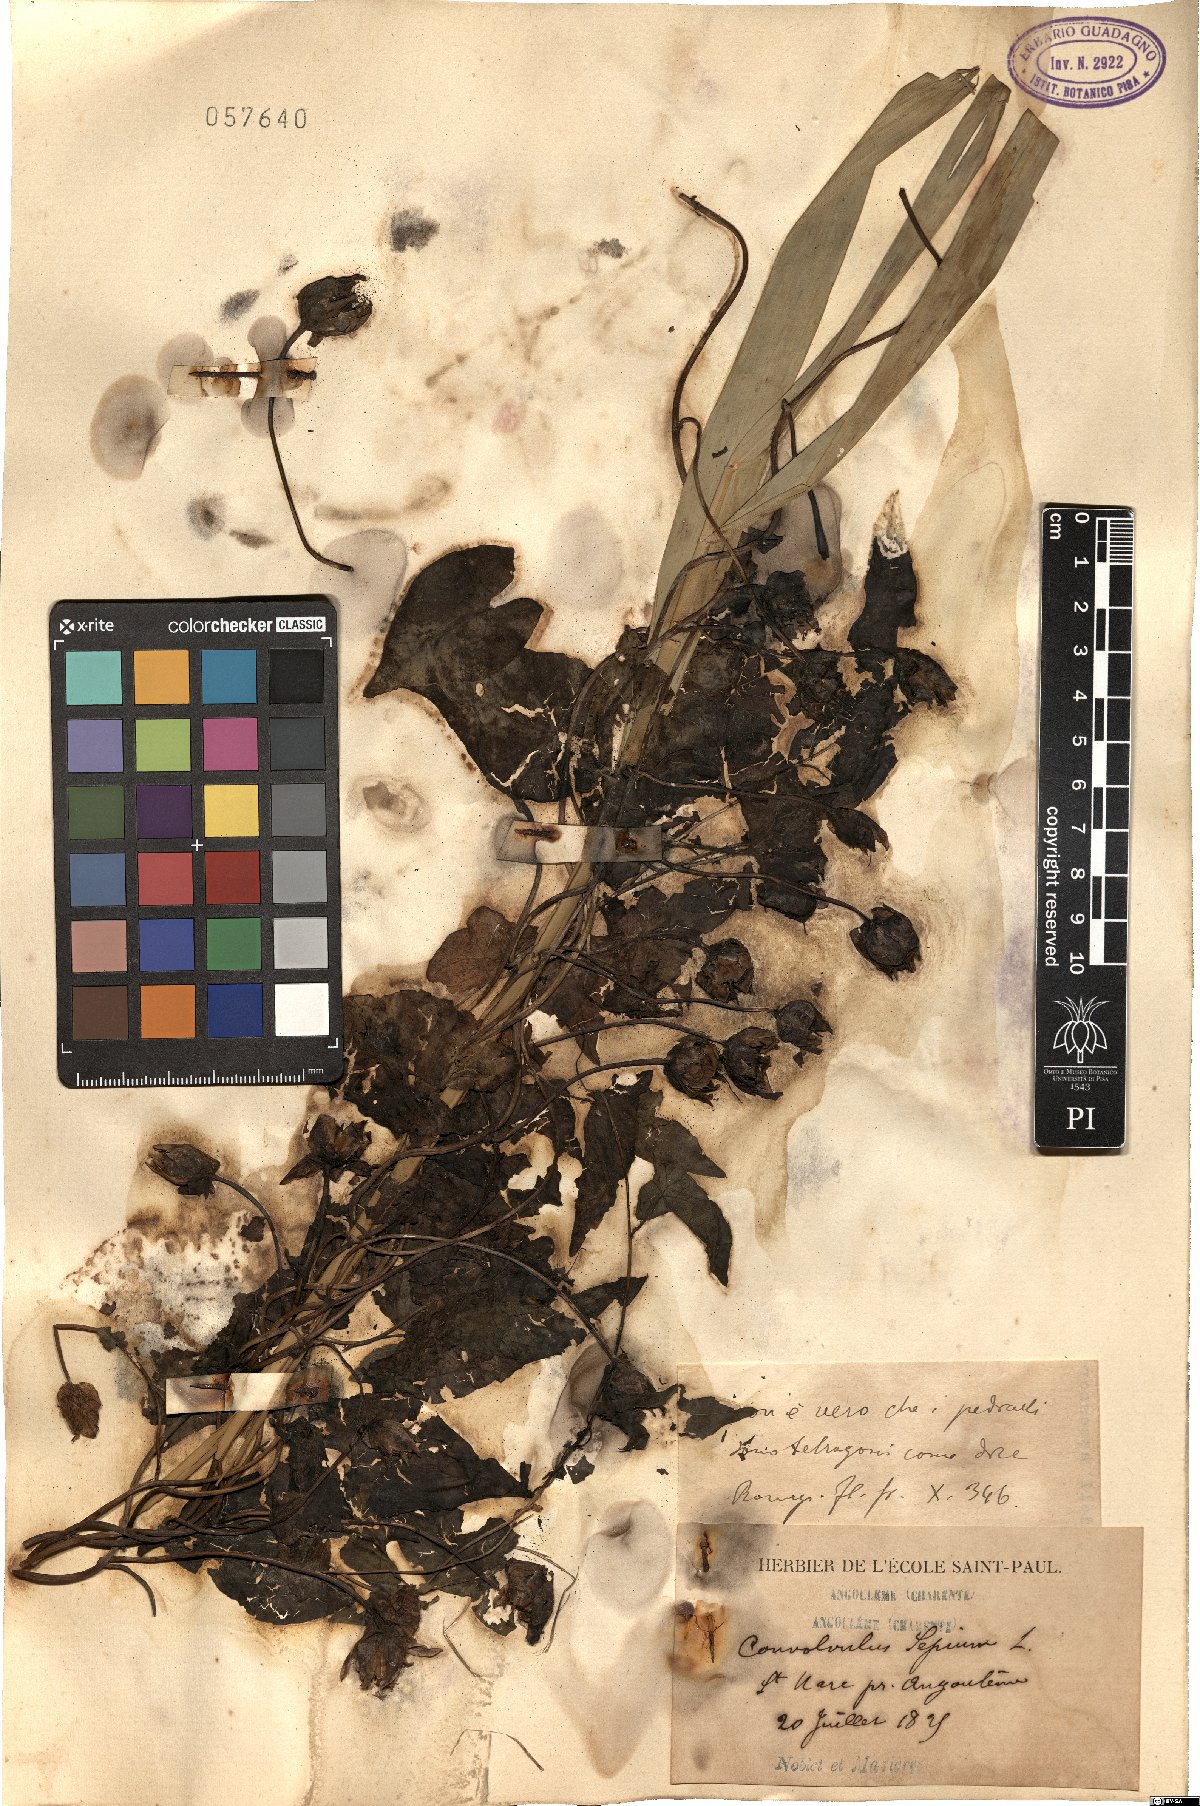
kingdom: Plantae
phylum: Tracheophyta
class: Magnoliopsida
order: Solanales
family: Convolvulaceae
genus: Calystegia
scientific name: Calystegia sepium
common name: Hedge bindweed
